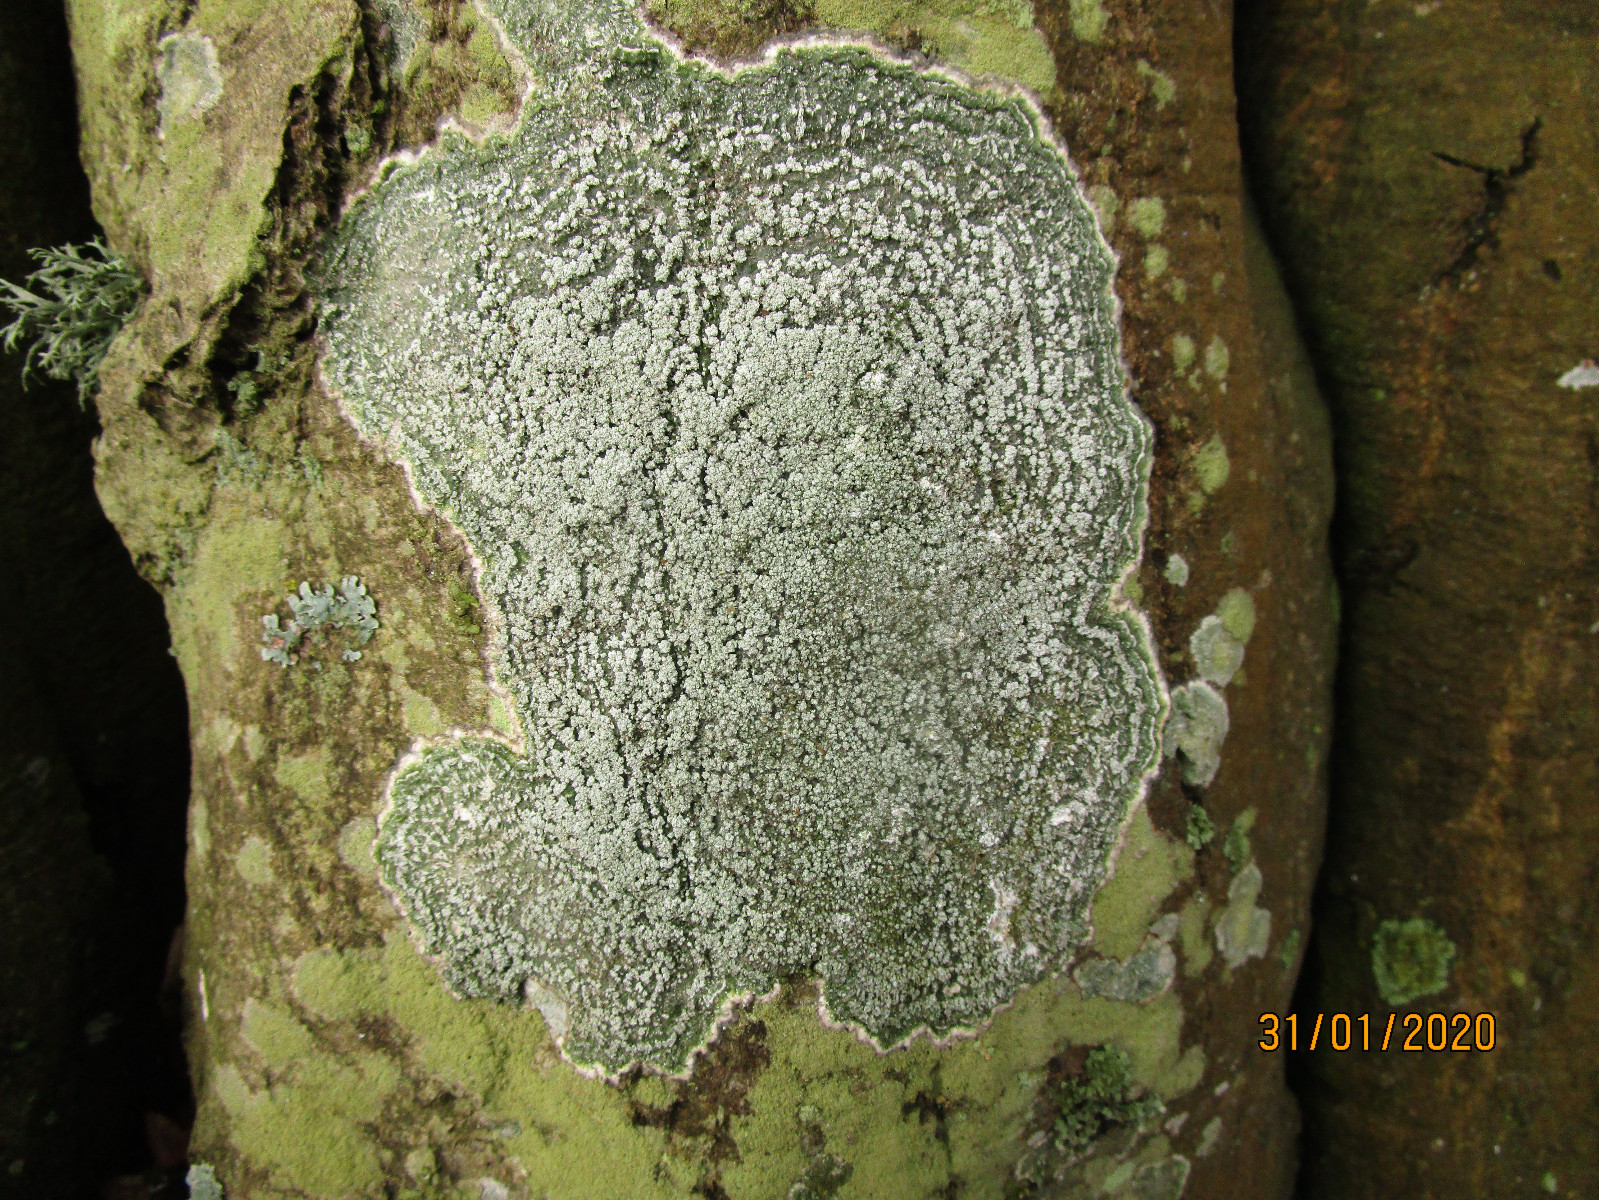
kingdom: Fungi
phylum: Ascomycota
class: Lecanoromycetes
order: Pertusariales
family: Pertusariaceae
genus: Lepra
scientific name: Lepra albescens
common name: hvidmelet prikvortelav
